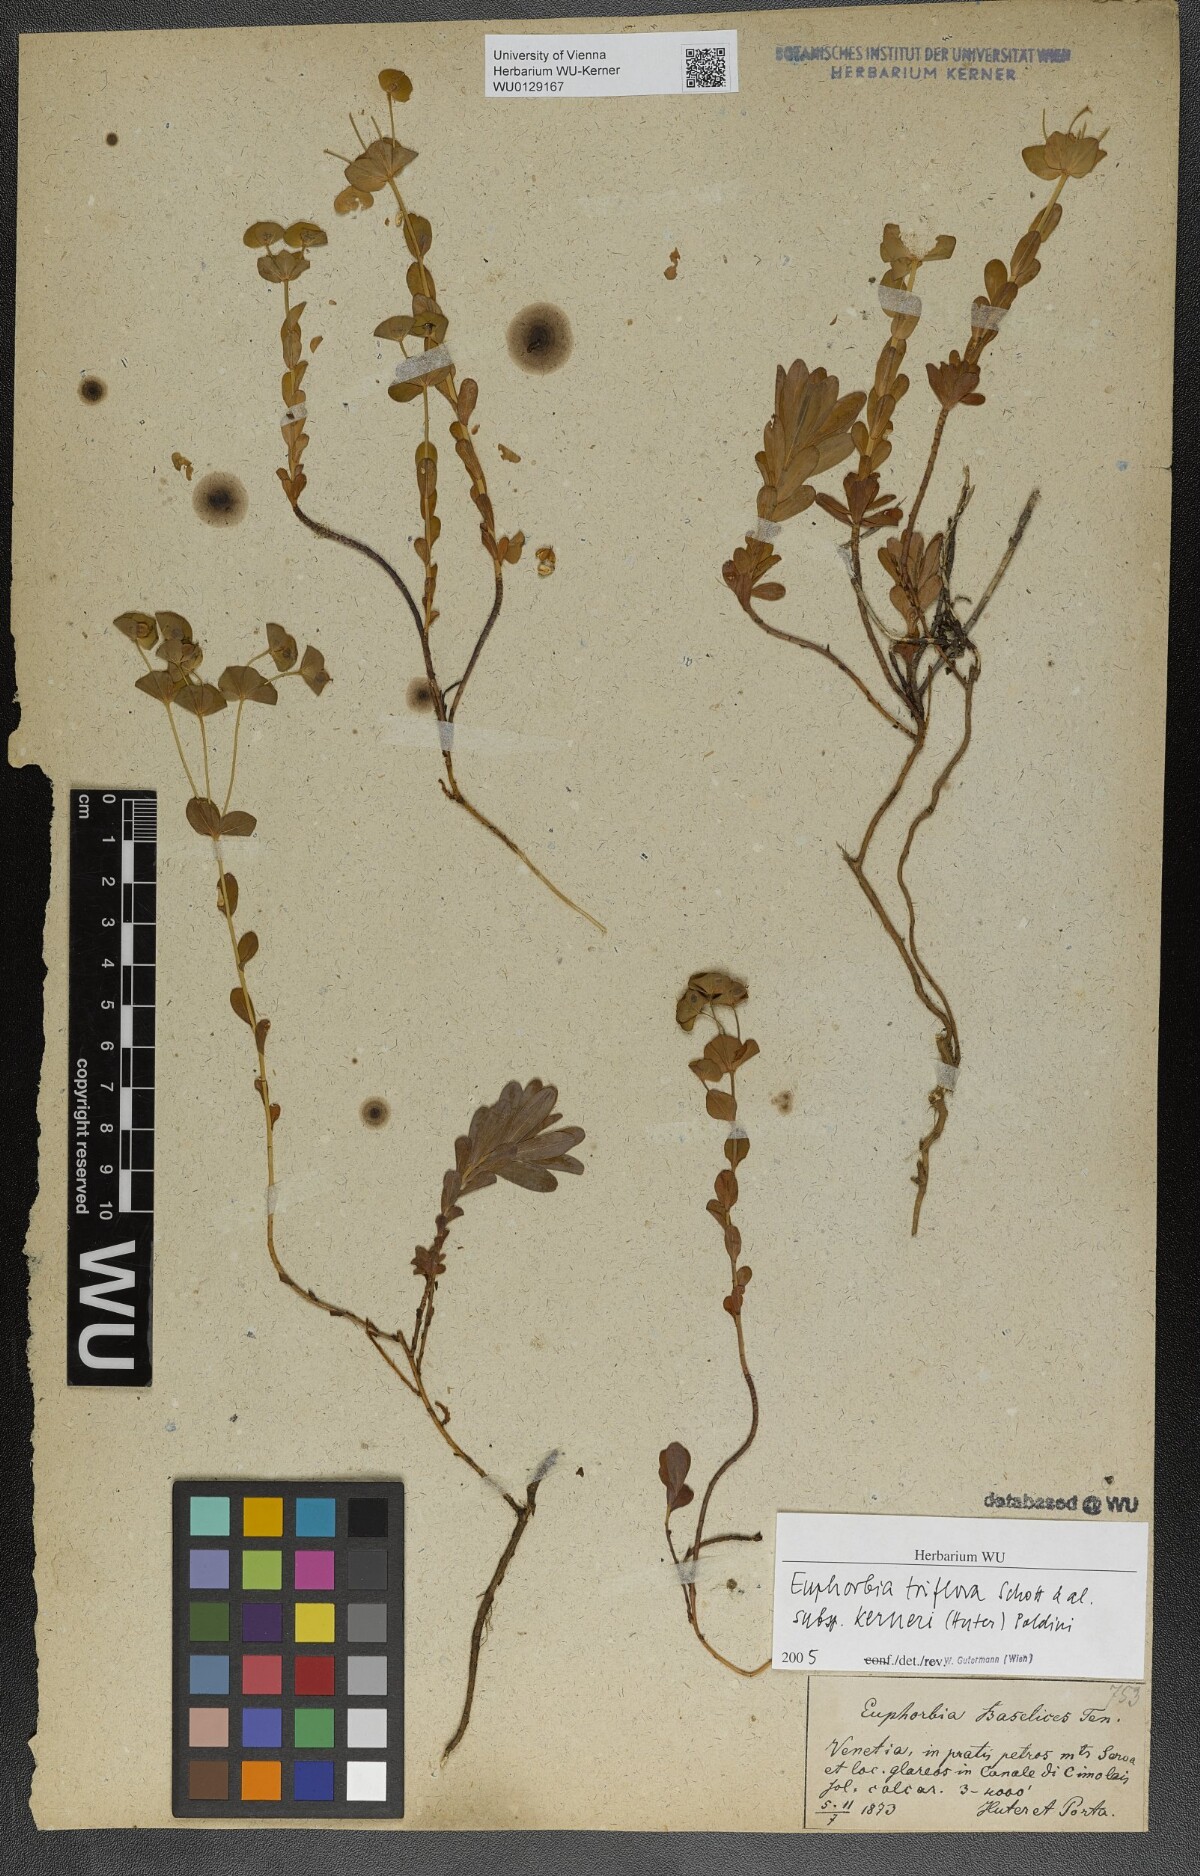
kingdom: Plantae
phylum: Tracheophyta
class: Magnoliopsida
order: Malpighiales
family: Euphorbiaceae
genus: Euphorbia
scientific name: Euphorbia kerneri
